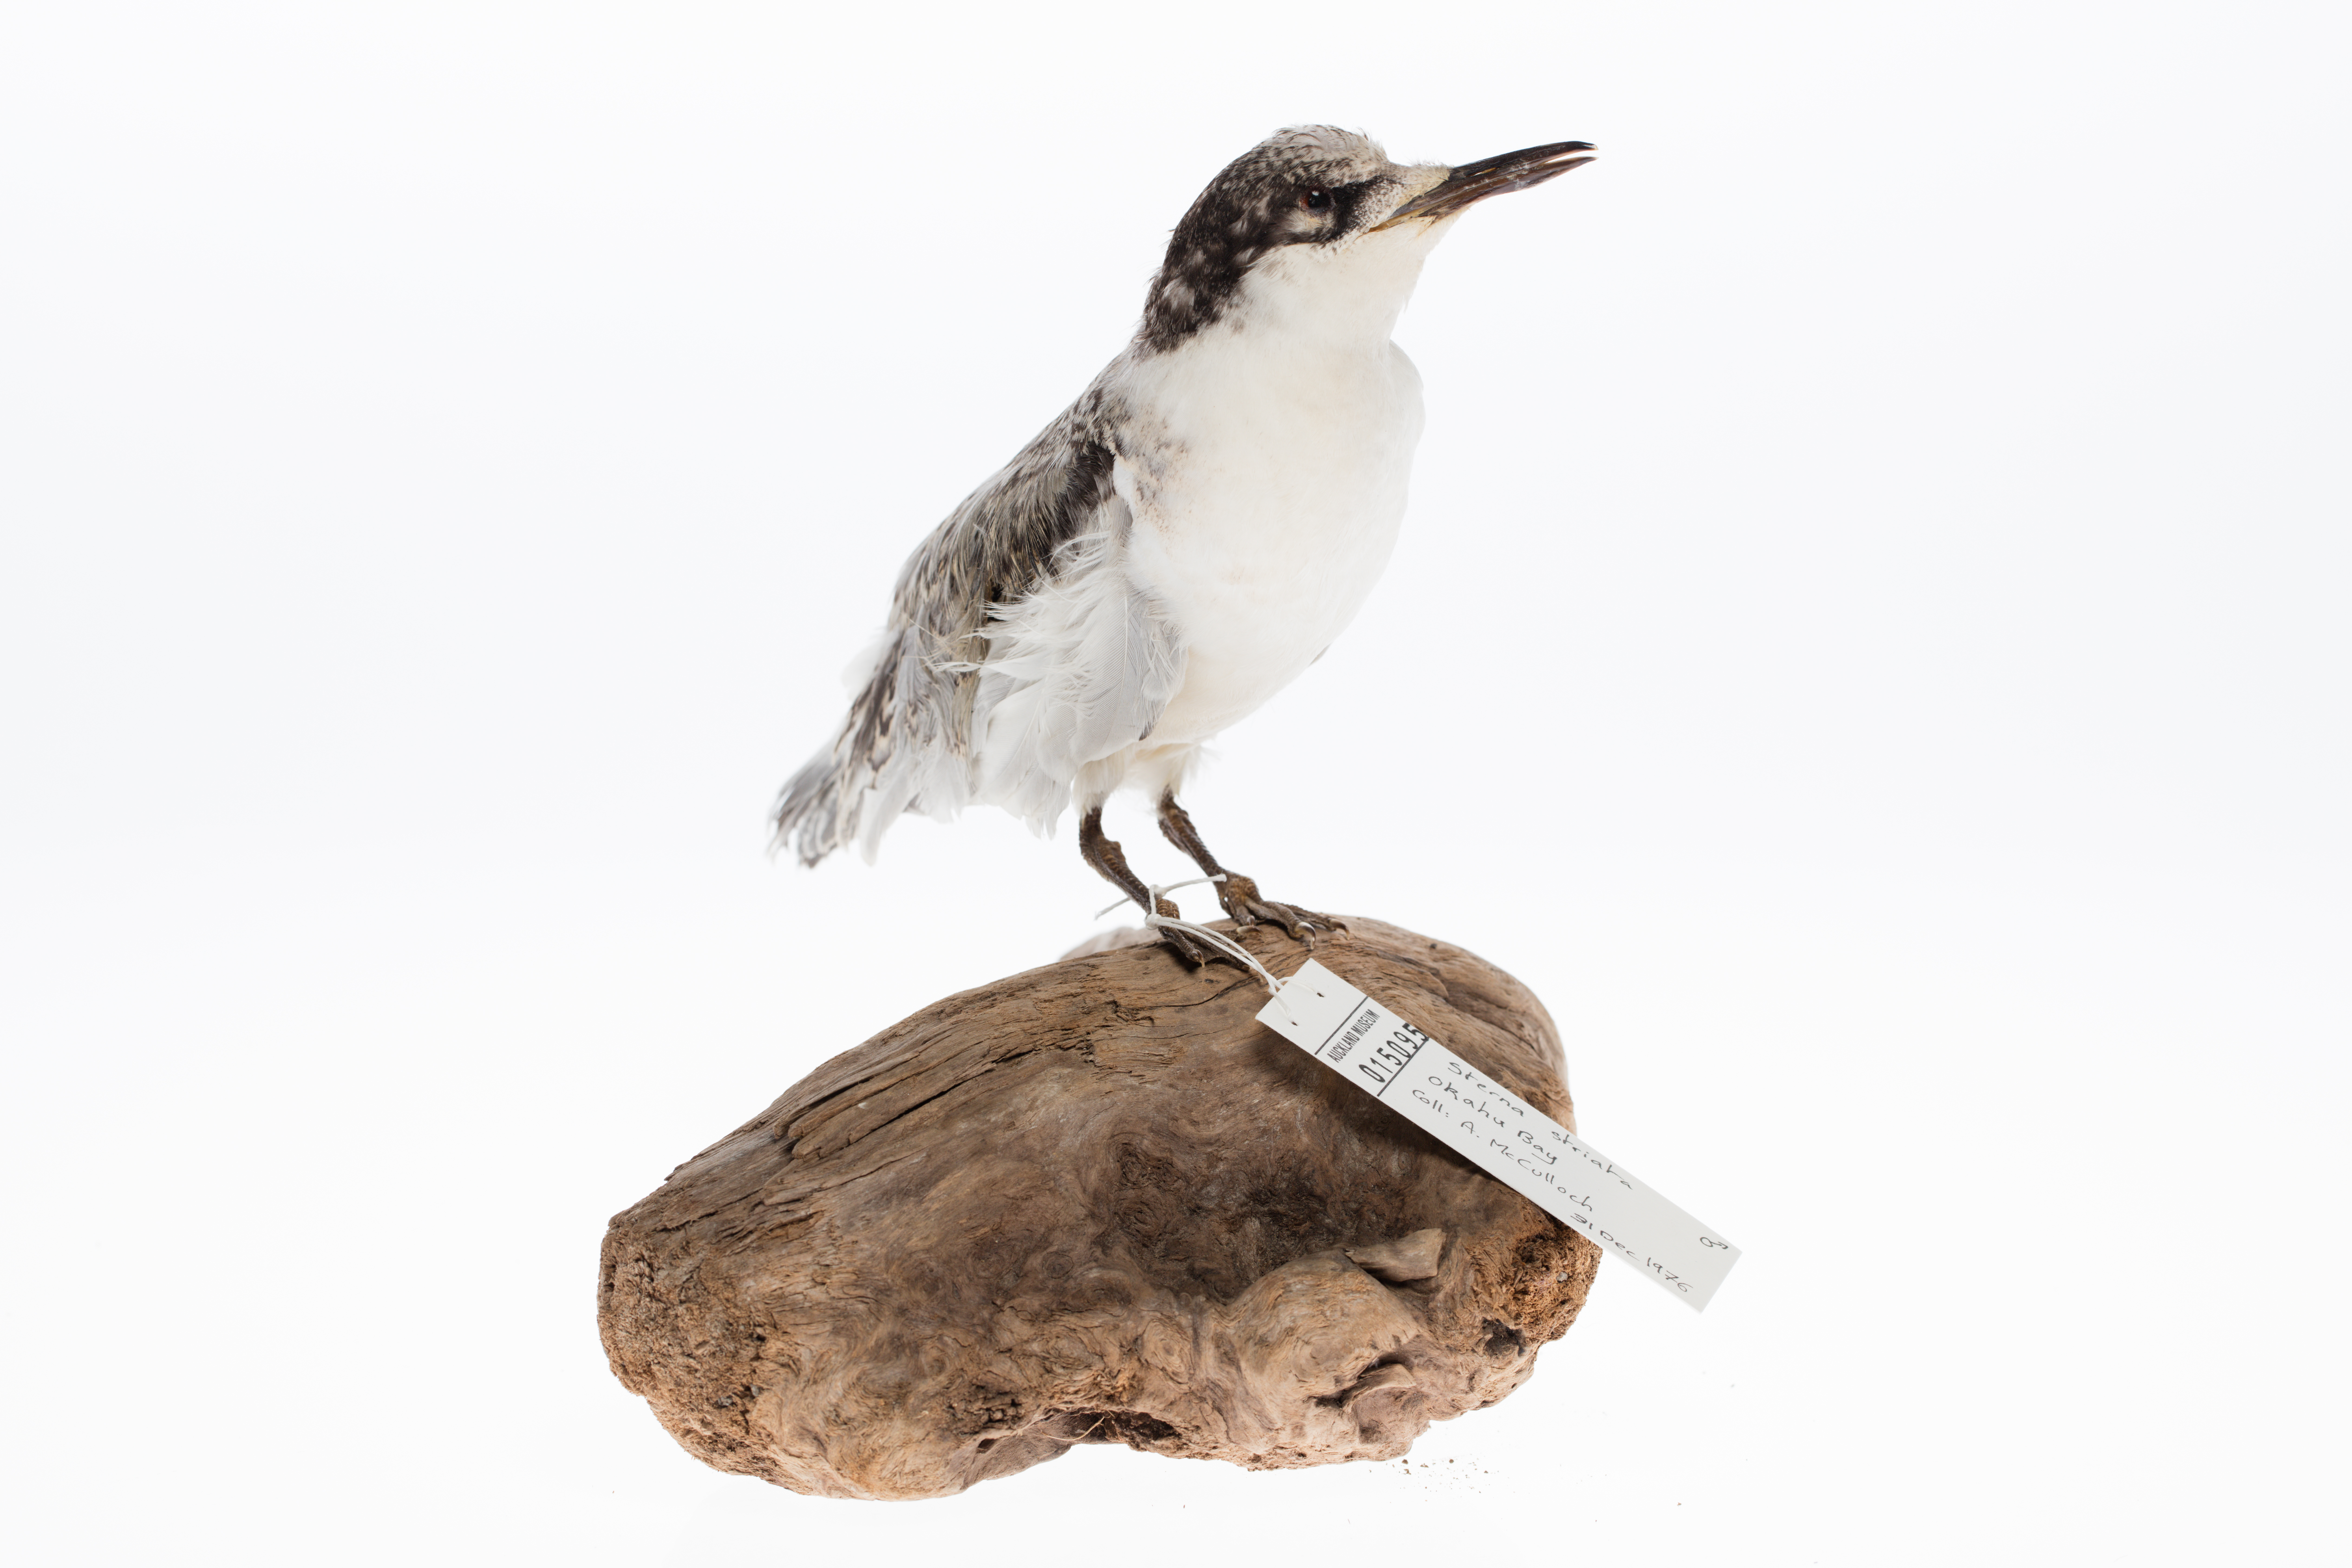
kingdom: Animalia
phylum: Chordata
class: Aves
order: Charadriiformes
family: Laridae
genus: Sterna
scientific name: Sterna striata
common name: White-fronted tern
